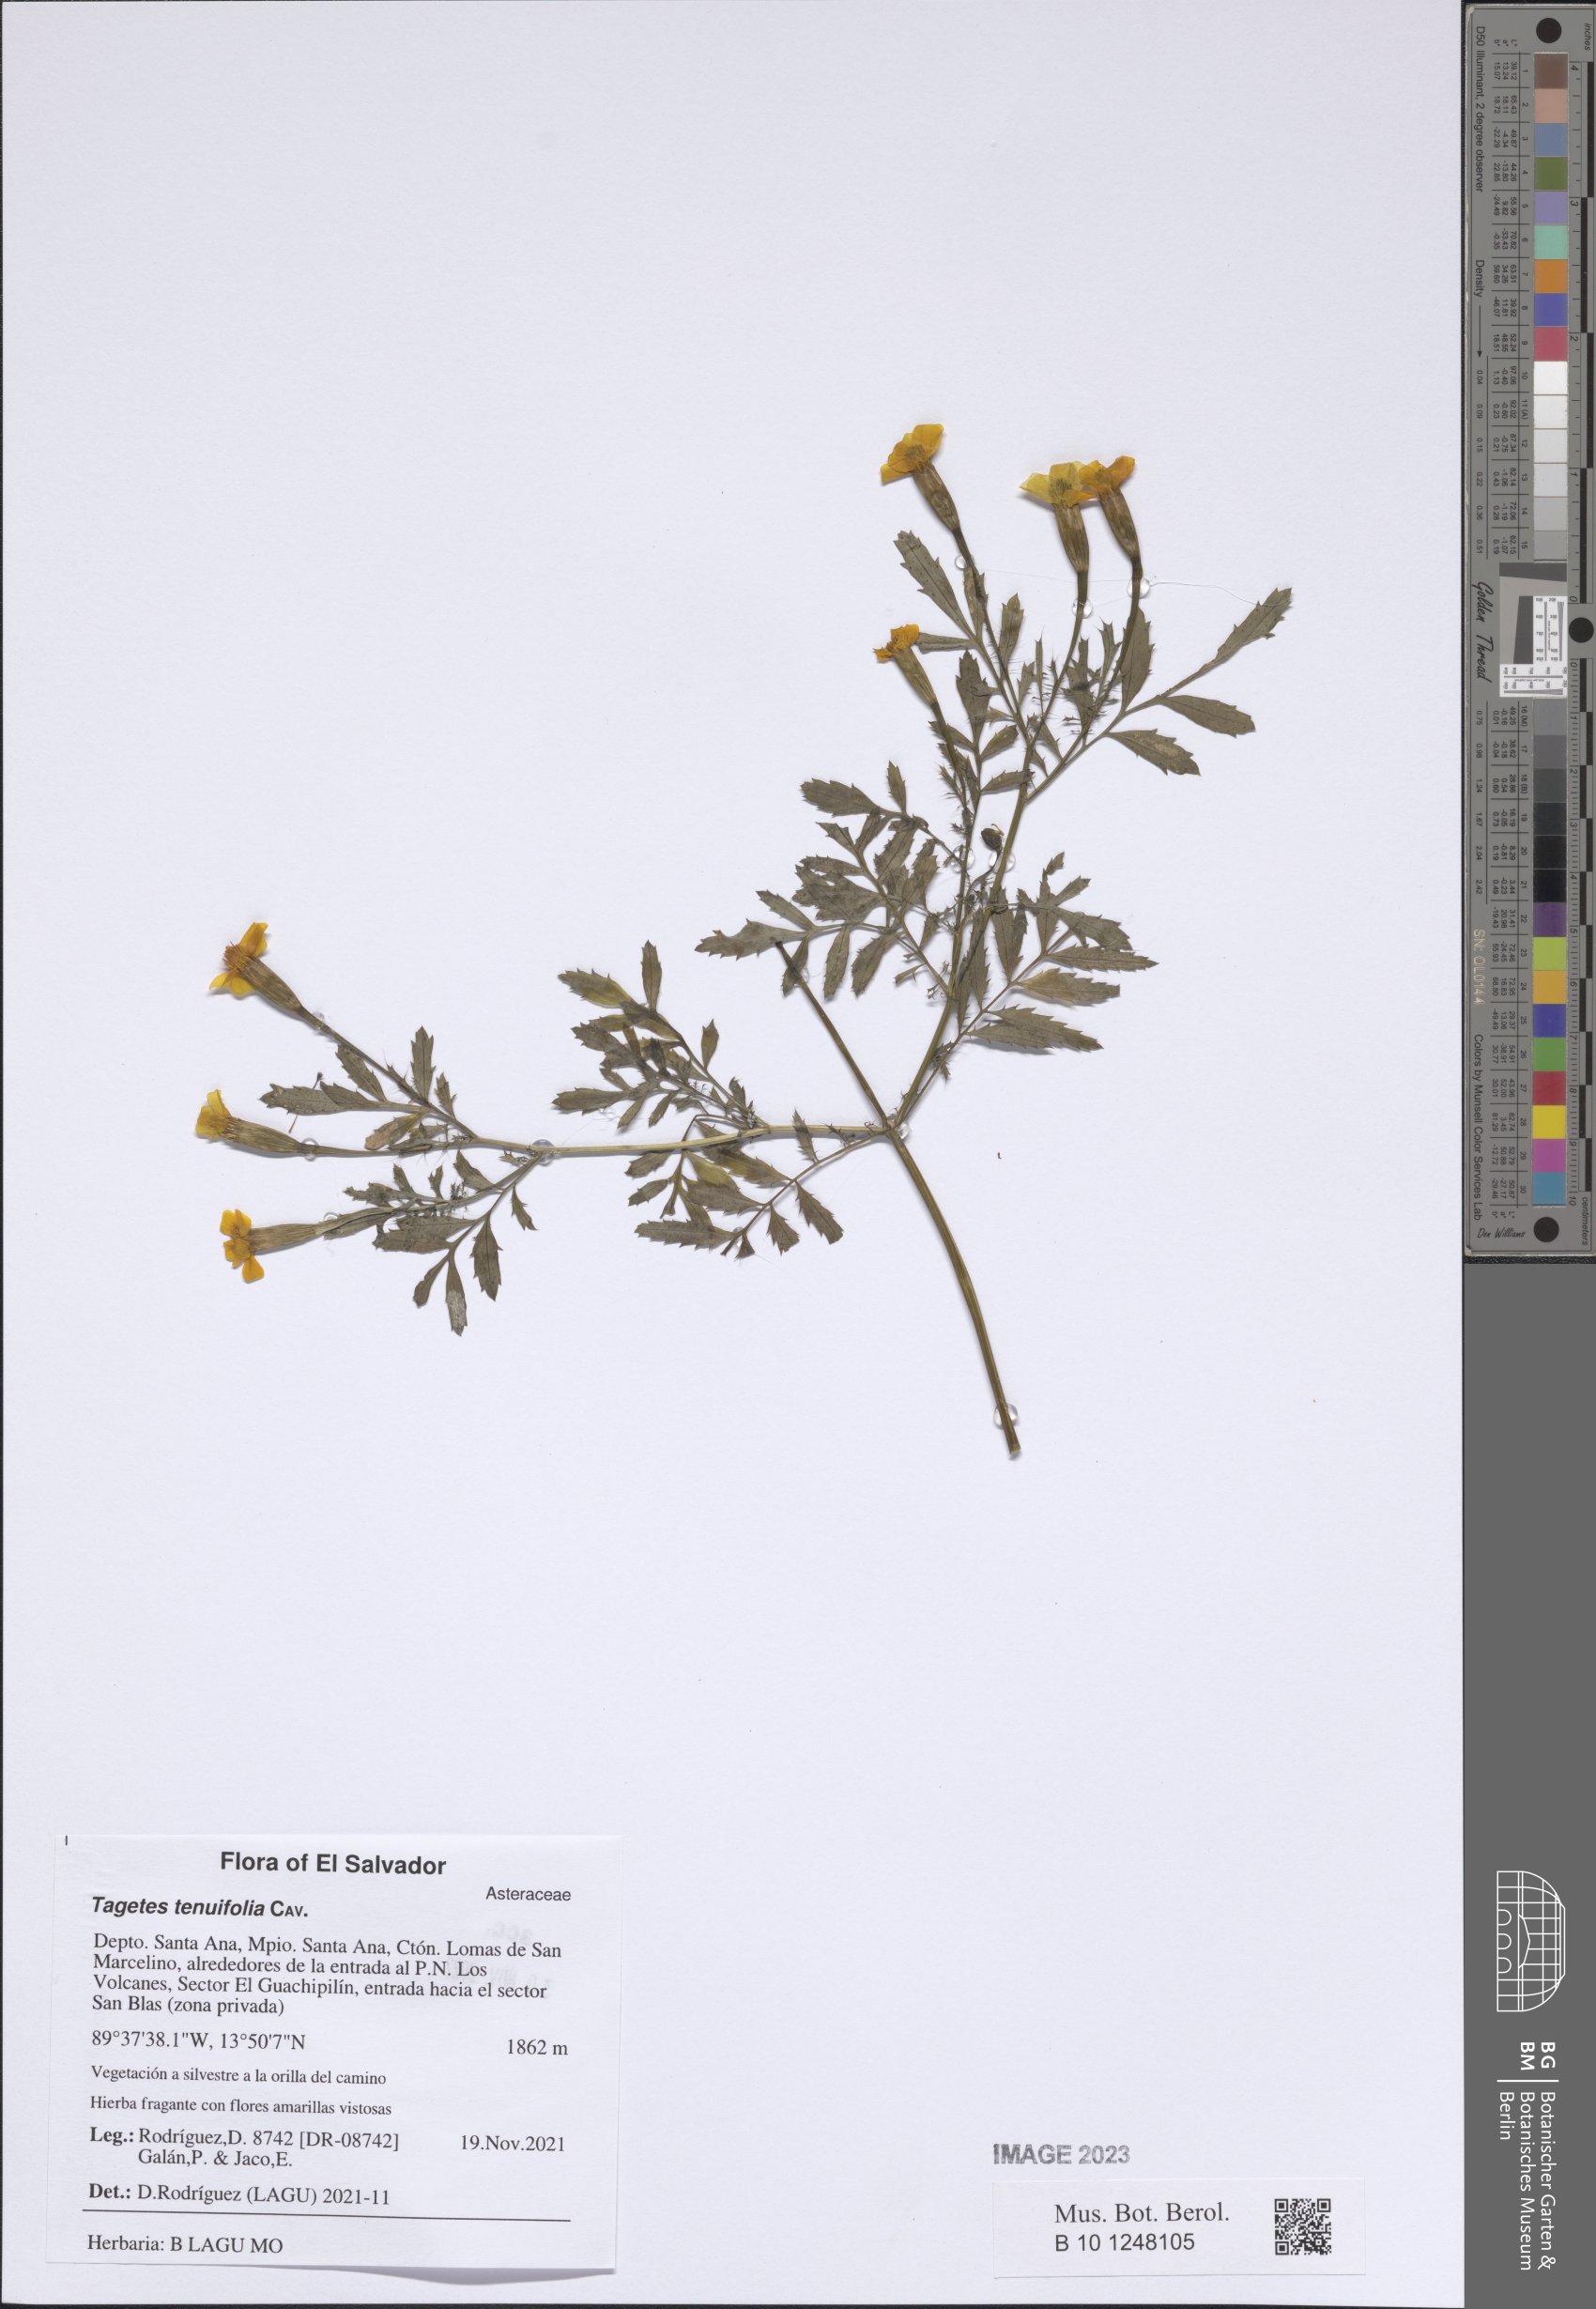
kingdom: Plantae
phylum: Tracheophyta
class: Magnoliopsida
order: Asterales
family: Asteraceae
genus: Tagetes
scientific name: Tagetes tenuifolia
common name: Signet marigold
